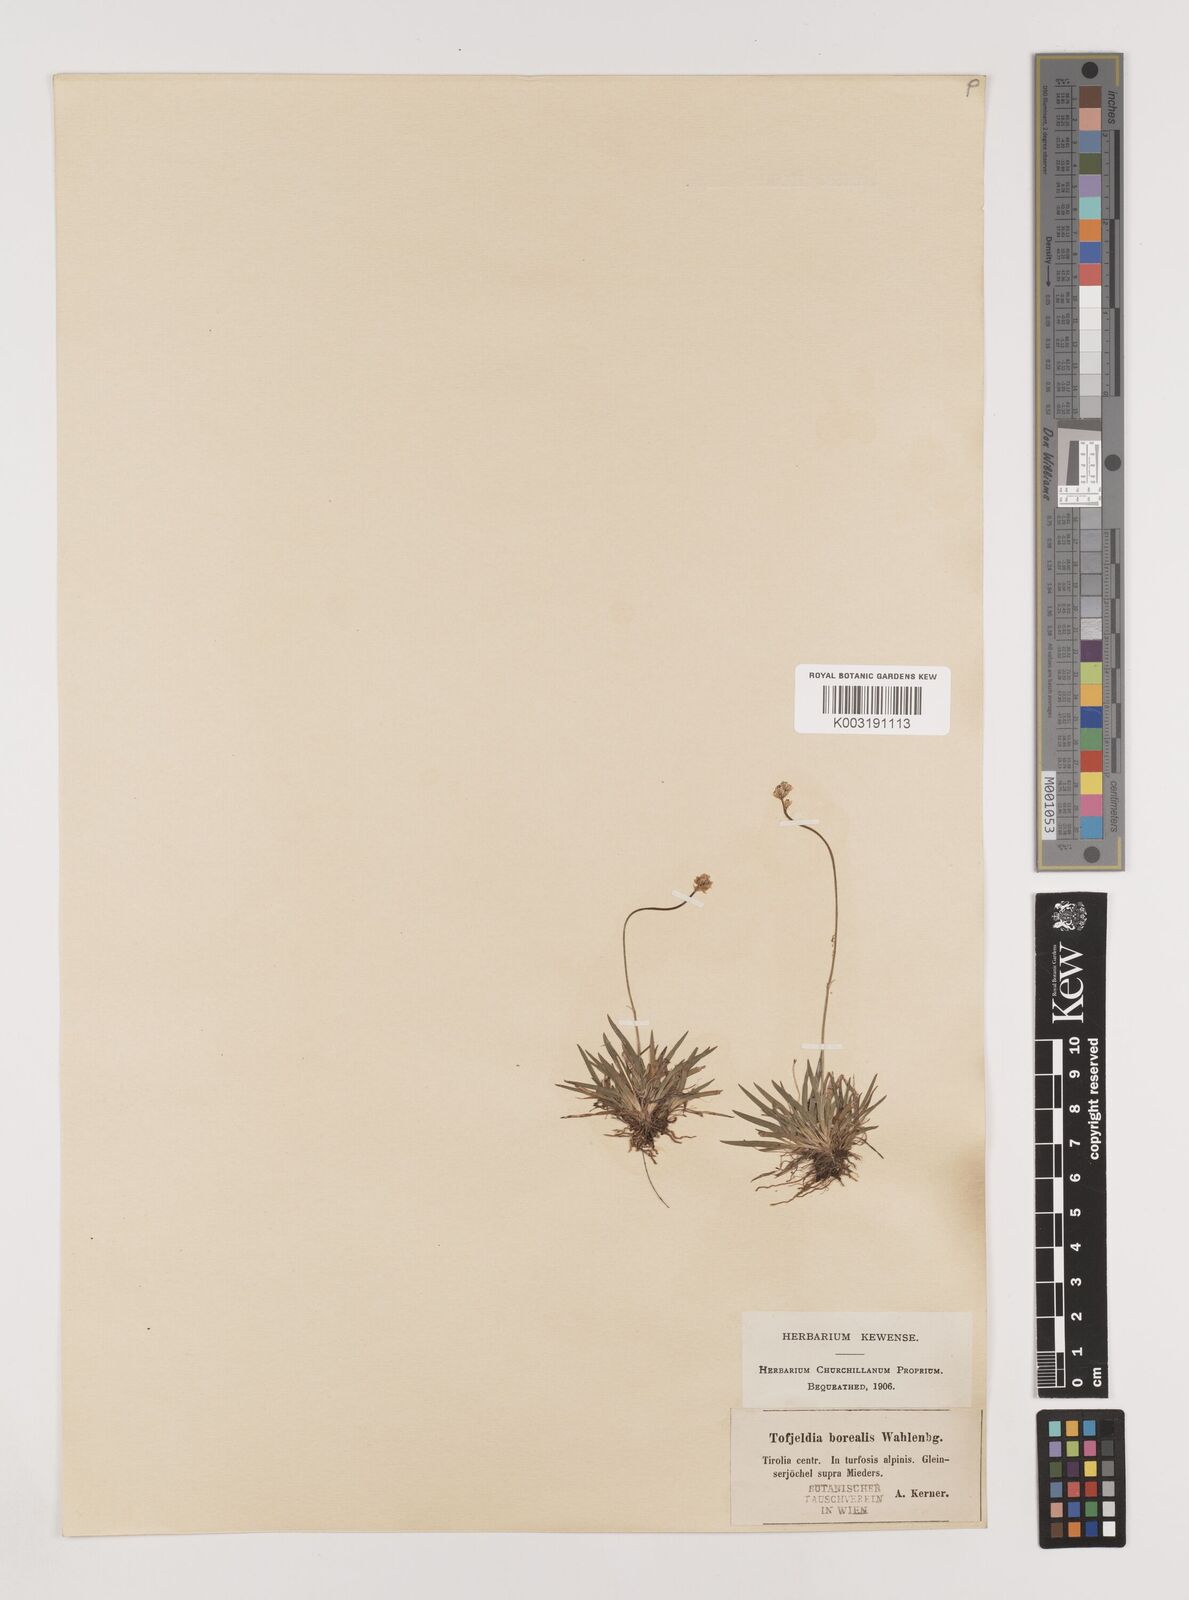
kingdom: Plantae
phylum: Tracheophyta
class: Liliopsida
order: Alismatales
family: Tofieldiaceae
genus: Tofieldia
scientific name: Tofieldia pusilla
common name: Scottish false asphodel
